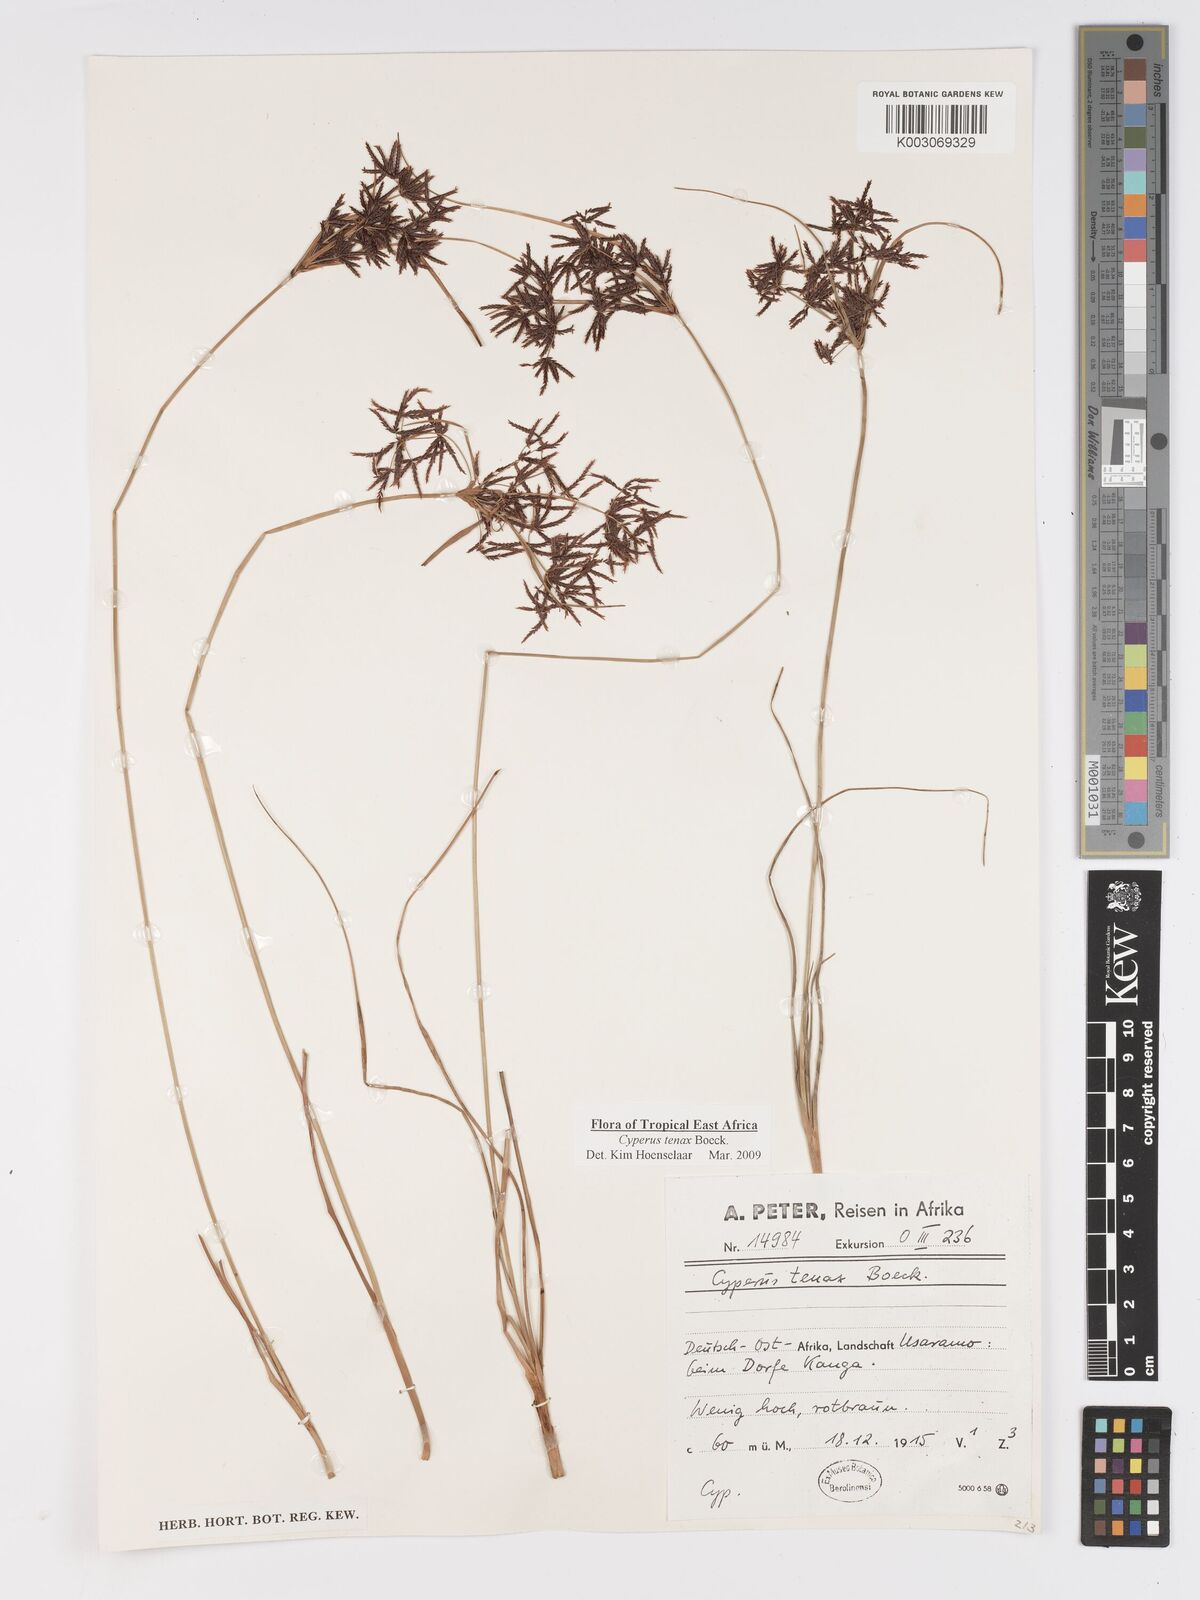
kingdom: Plantae
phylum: Tracheophyta
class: Liliopsida
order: Poales
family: Cyperaceae
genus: Cyperus
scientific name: Cyperus tenax
